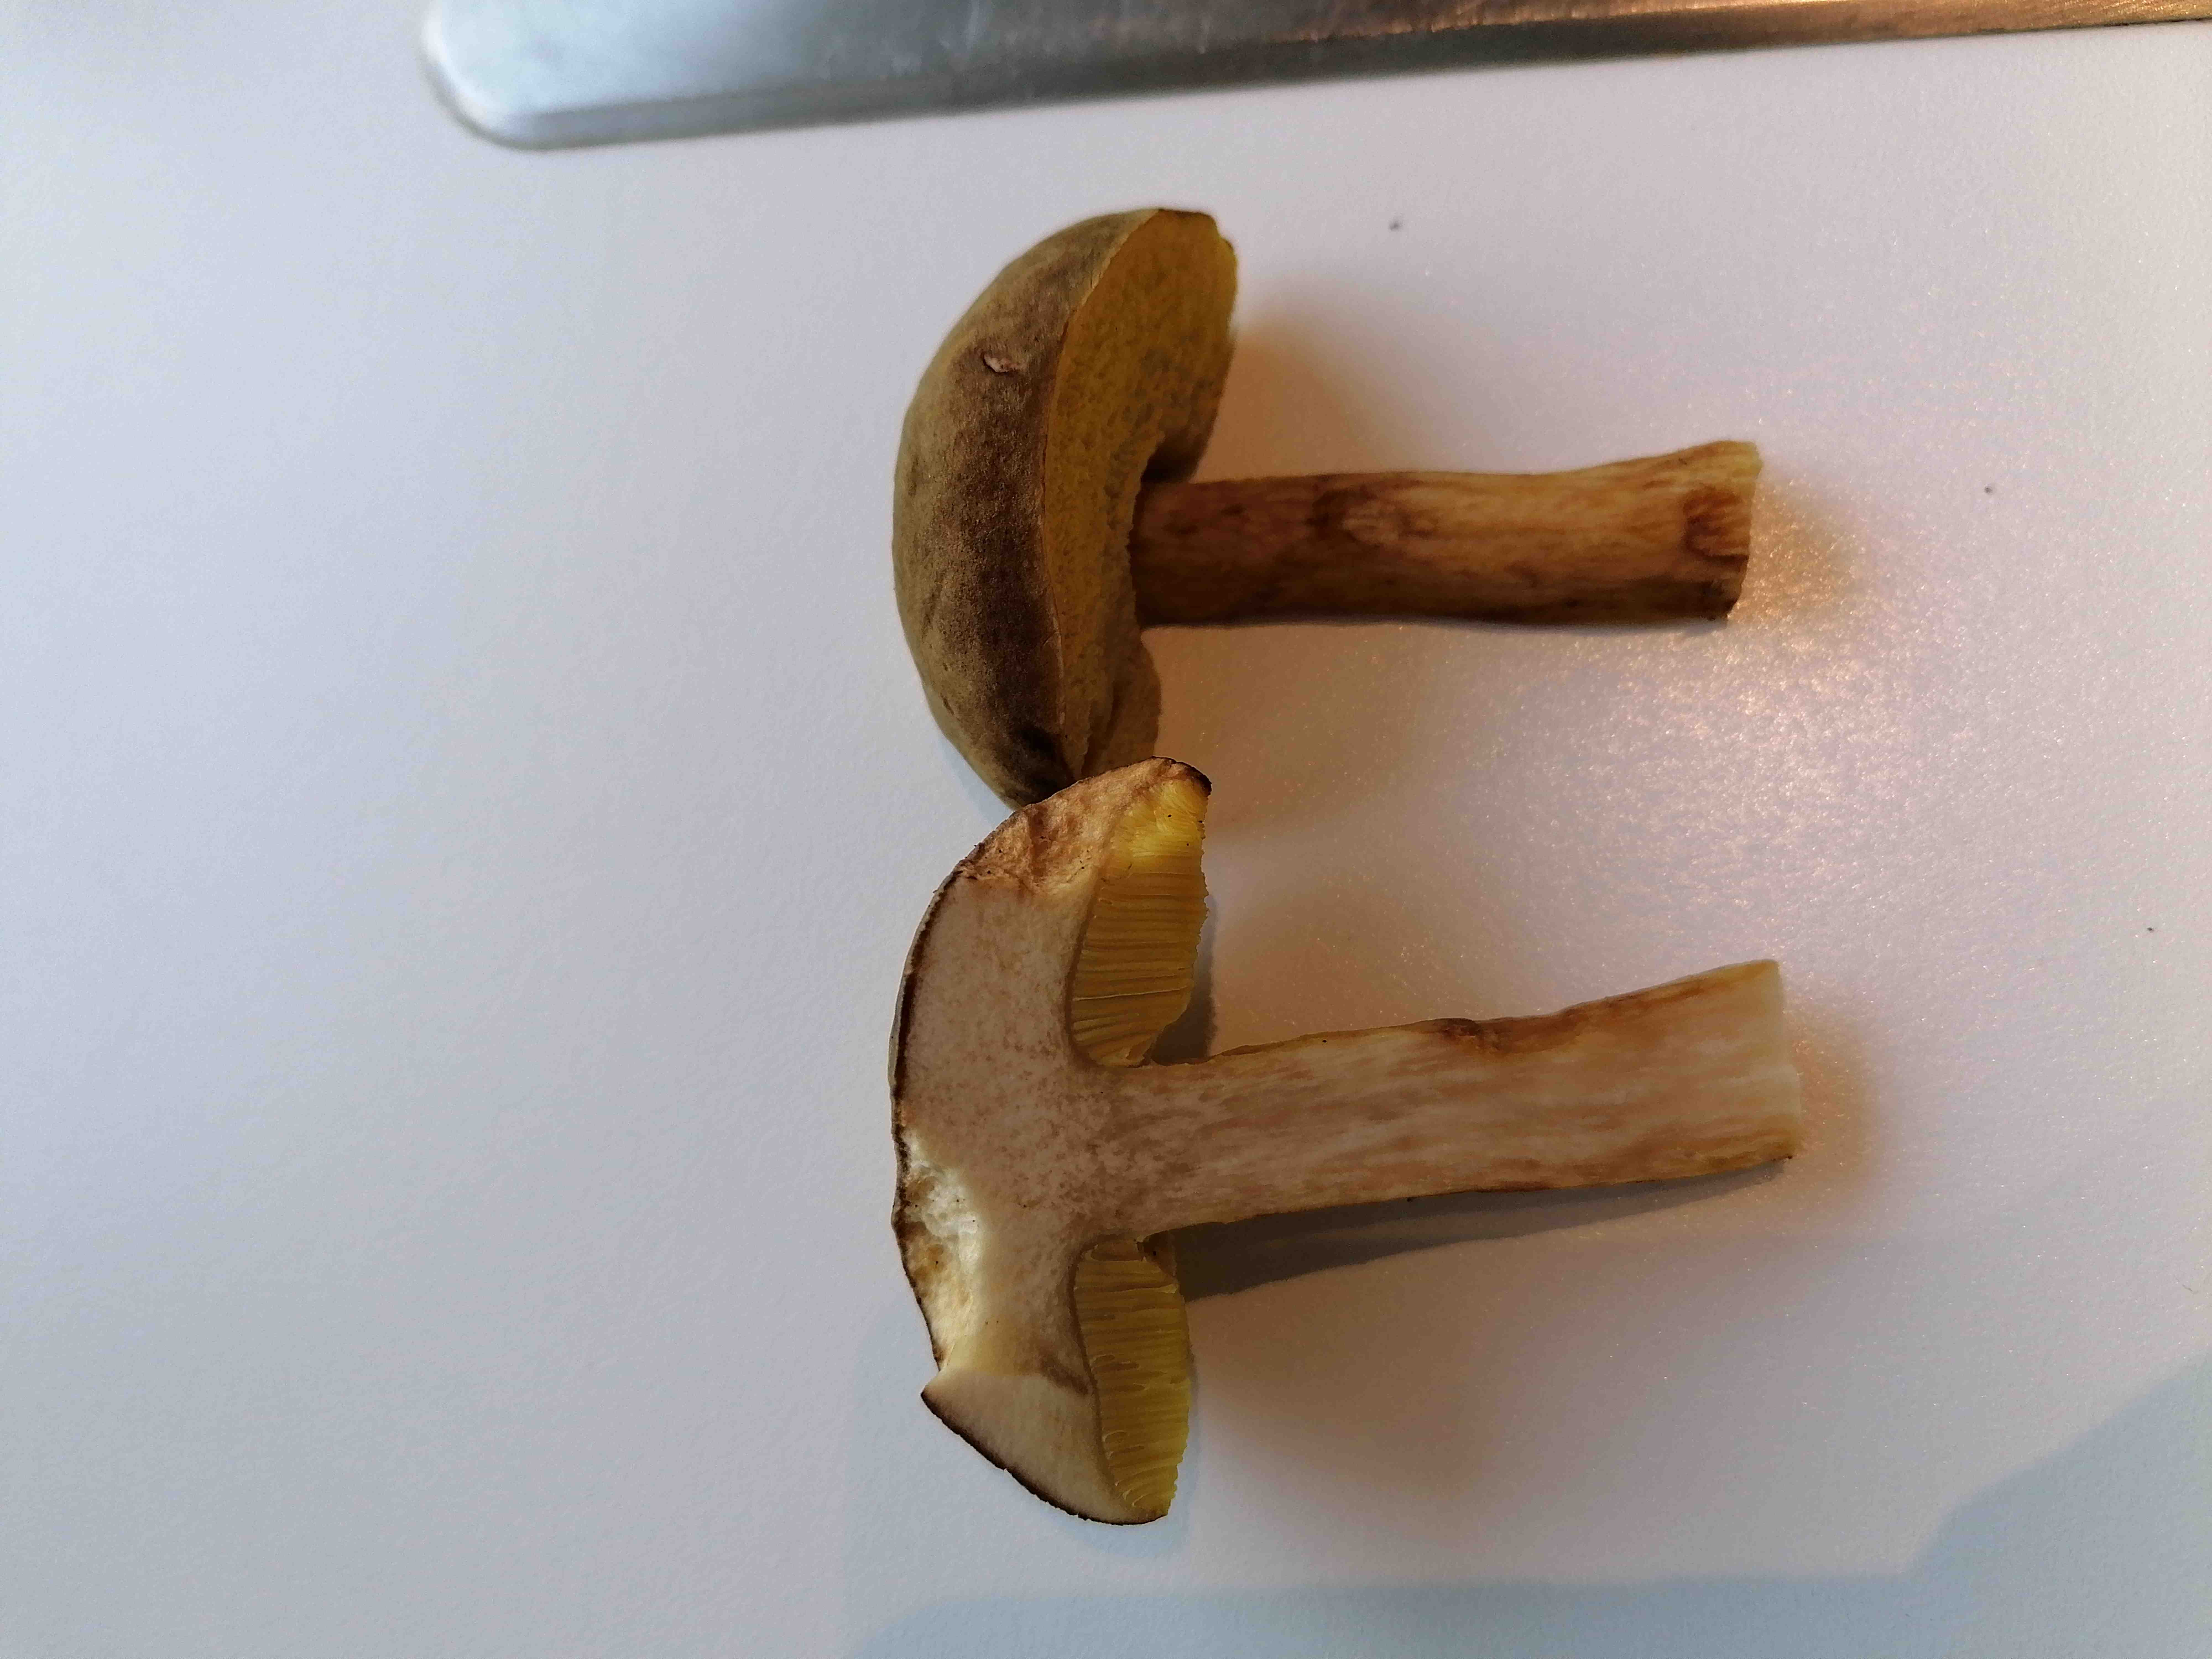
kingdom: Fungi
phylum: Basidiomycota
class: Agaricomycetes
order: Boletales
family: Boletaceae
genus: Xerocomus
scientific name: Xerocomus ferrugineus
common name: vaskeskinds-rørhat
